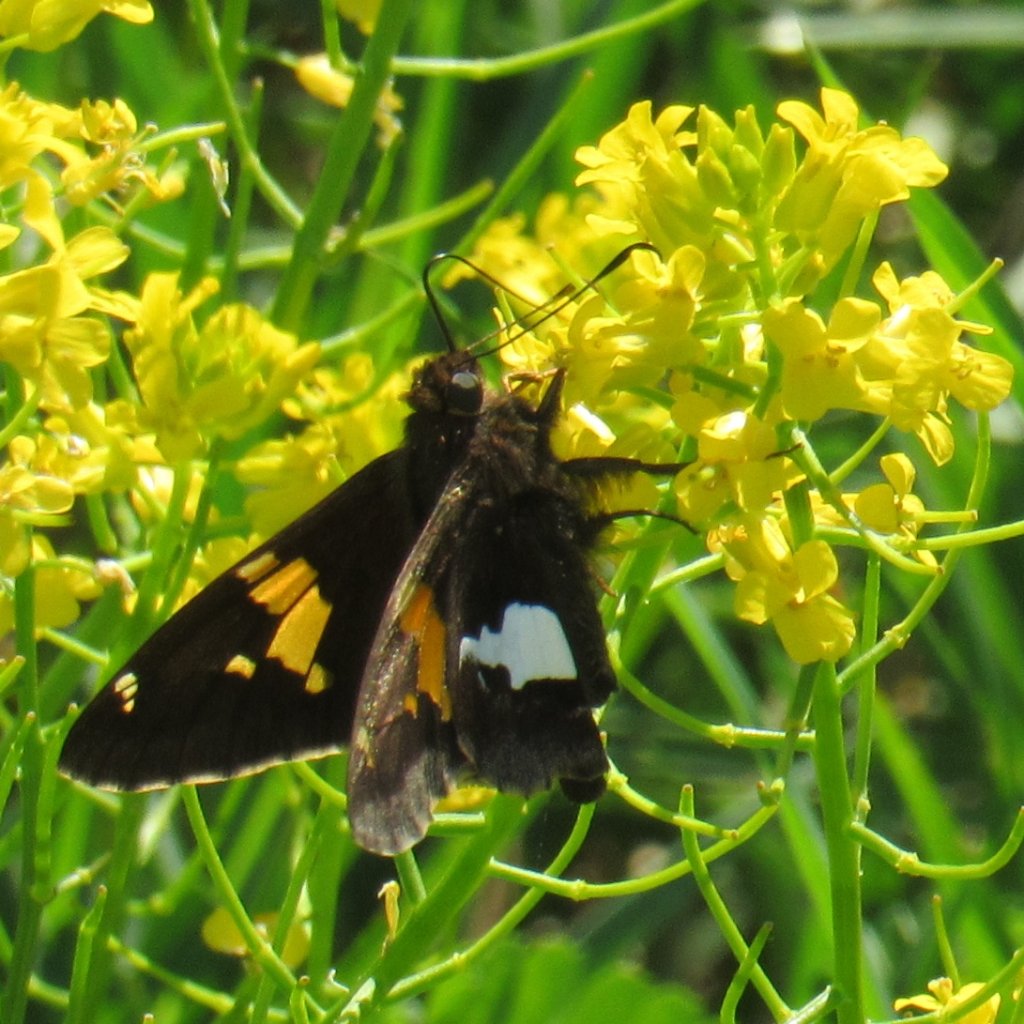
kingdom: Animalia
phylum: Arthropoda
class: Insecta
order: Lepidoptera
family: Hesperiidae
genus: Epargyreus
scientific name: Epargyreus clarus
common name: Silver-spotted Skipper
